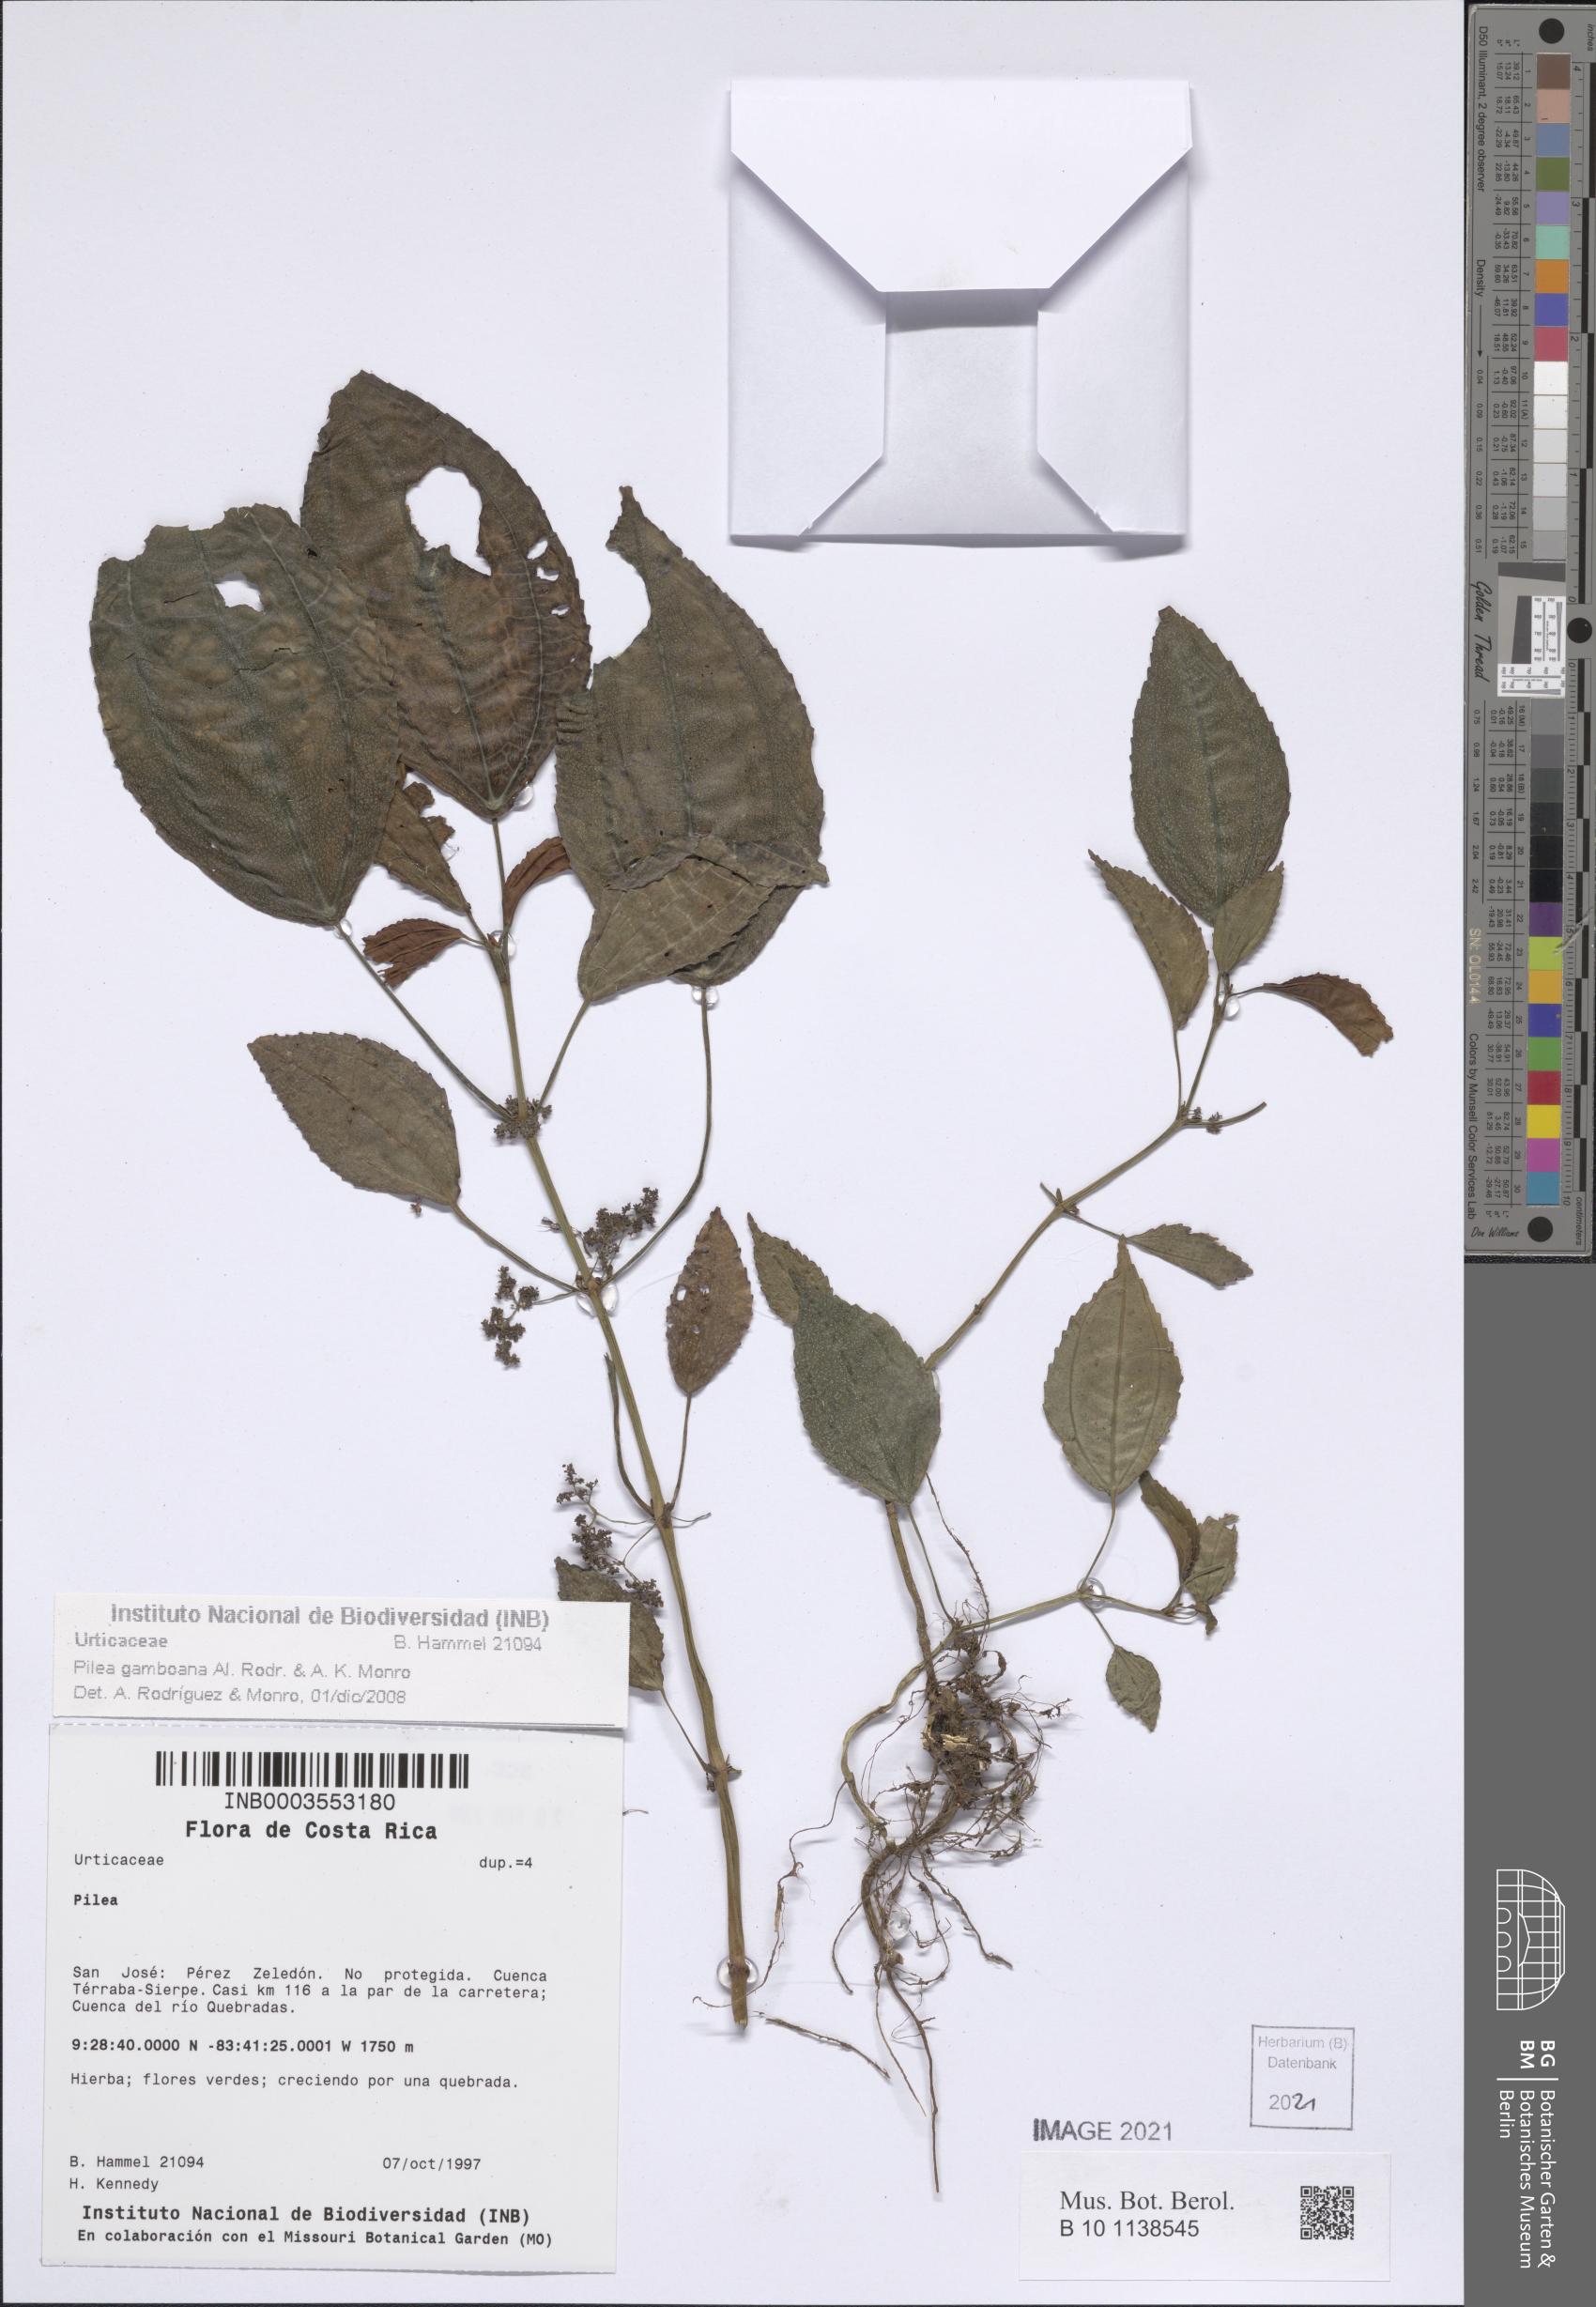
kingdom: Plantae
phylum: Tracheophyta
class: Magnoliopsida
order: Rosales
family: Urticaceae
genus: Pilea
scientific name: Pilea gamboana
